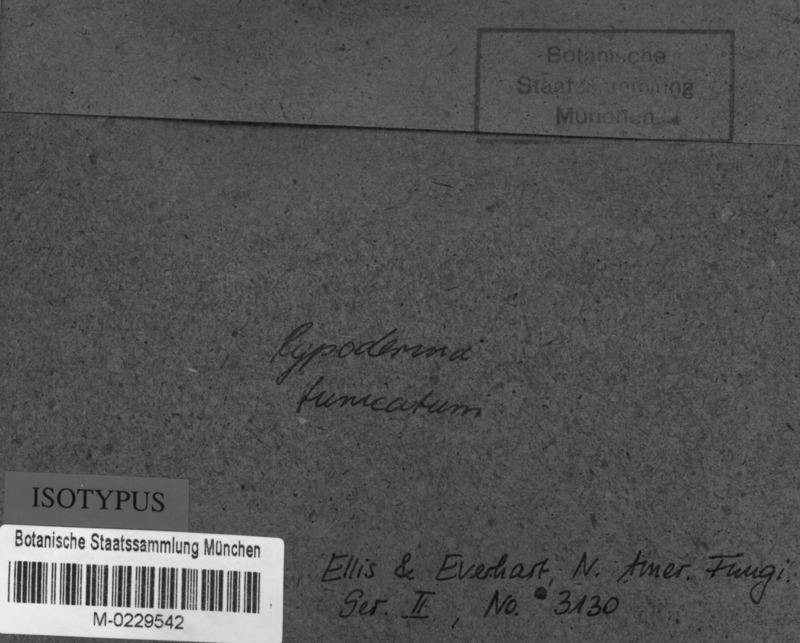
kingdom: Fungi
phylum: Ascomycota
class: Leotiomycetes
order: Rhytismatales
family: Rhytismataceae
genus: Hypoderma
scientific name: Hypoderma tunicatum
